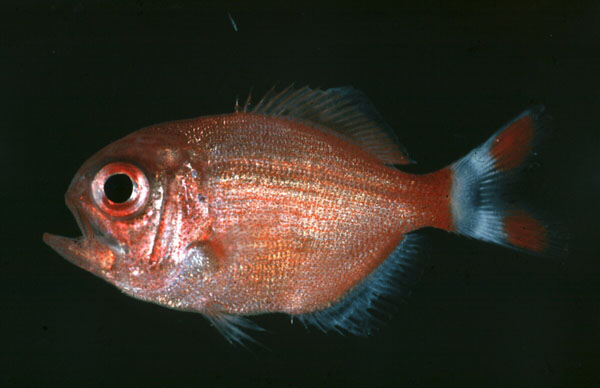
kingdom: Animalia
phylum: Chordata
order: Beryciformes
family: Berycidae
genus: Centroberyx
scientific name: Centroberyx spinosus
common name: Short alfonsino
